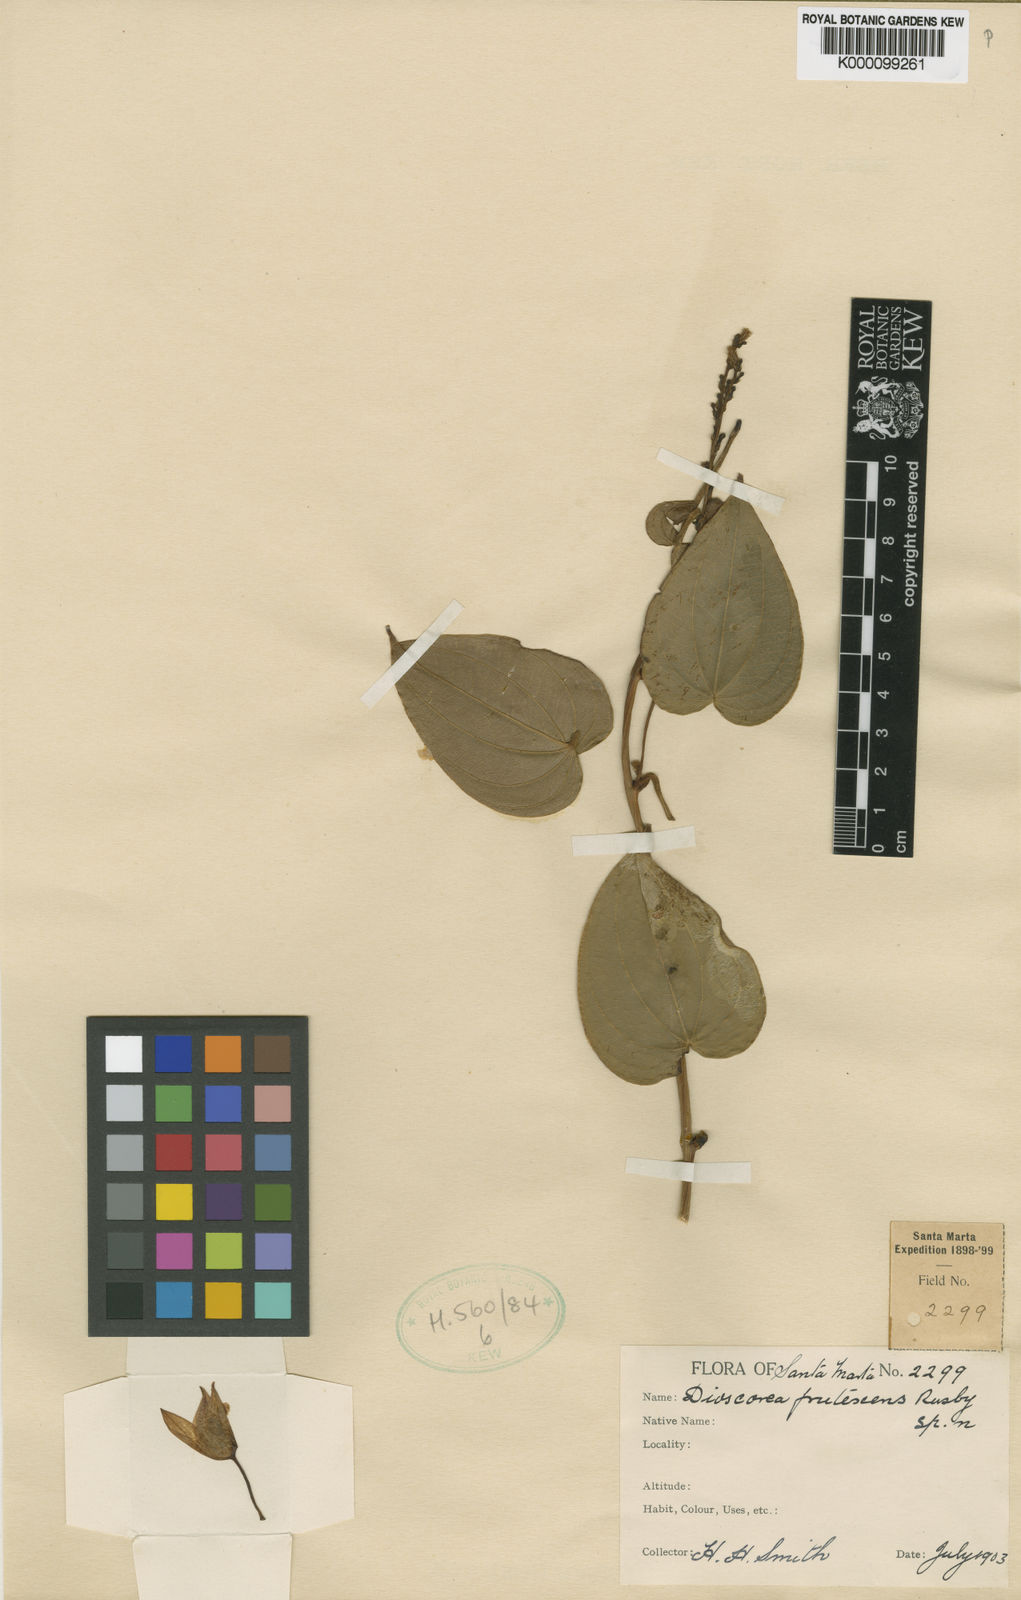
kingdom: Plantae
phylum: Tracheophyta
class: Liliopsida
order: Dioscoreales
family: Dioscoreaceae
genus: Dioscorea
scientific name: Dioscorea coriacea
